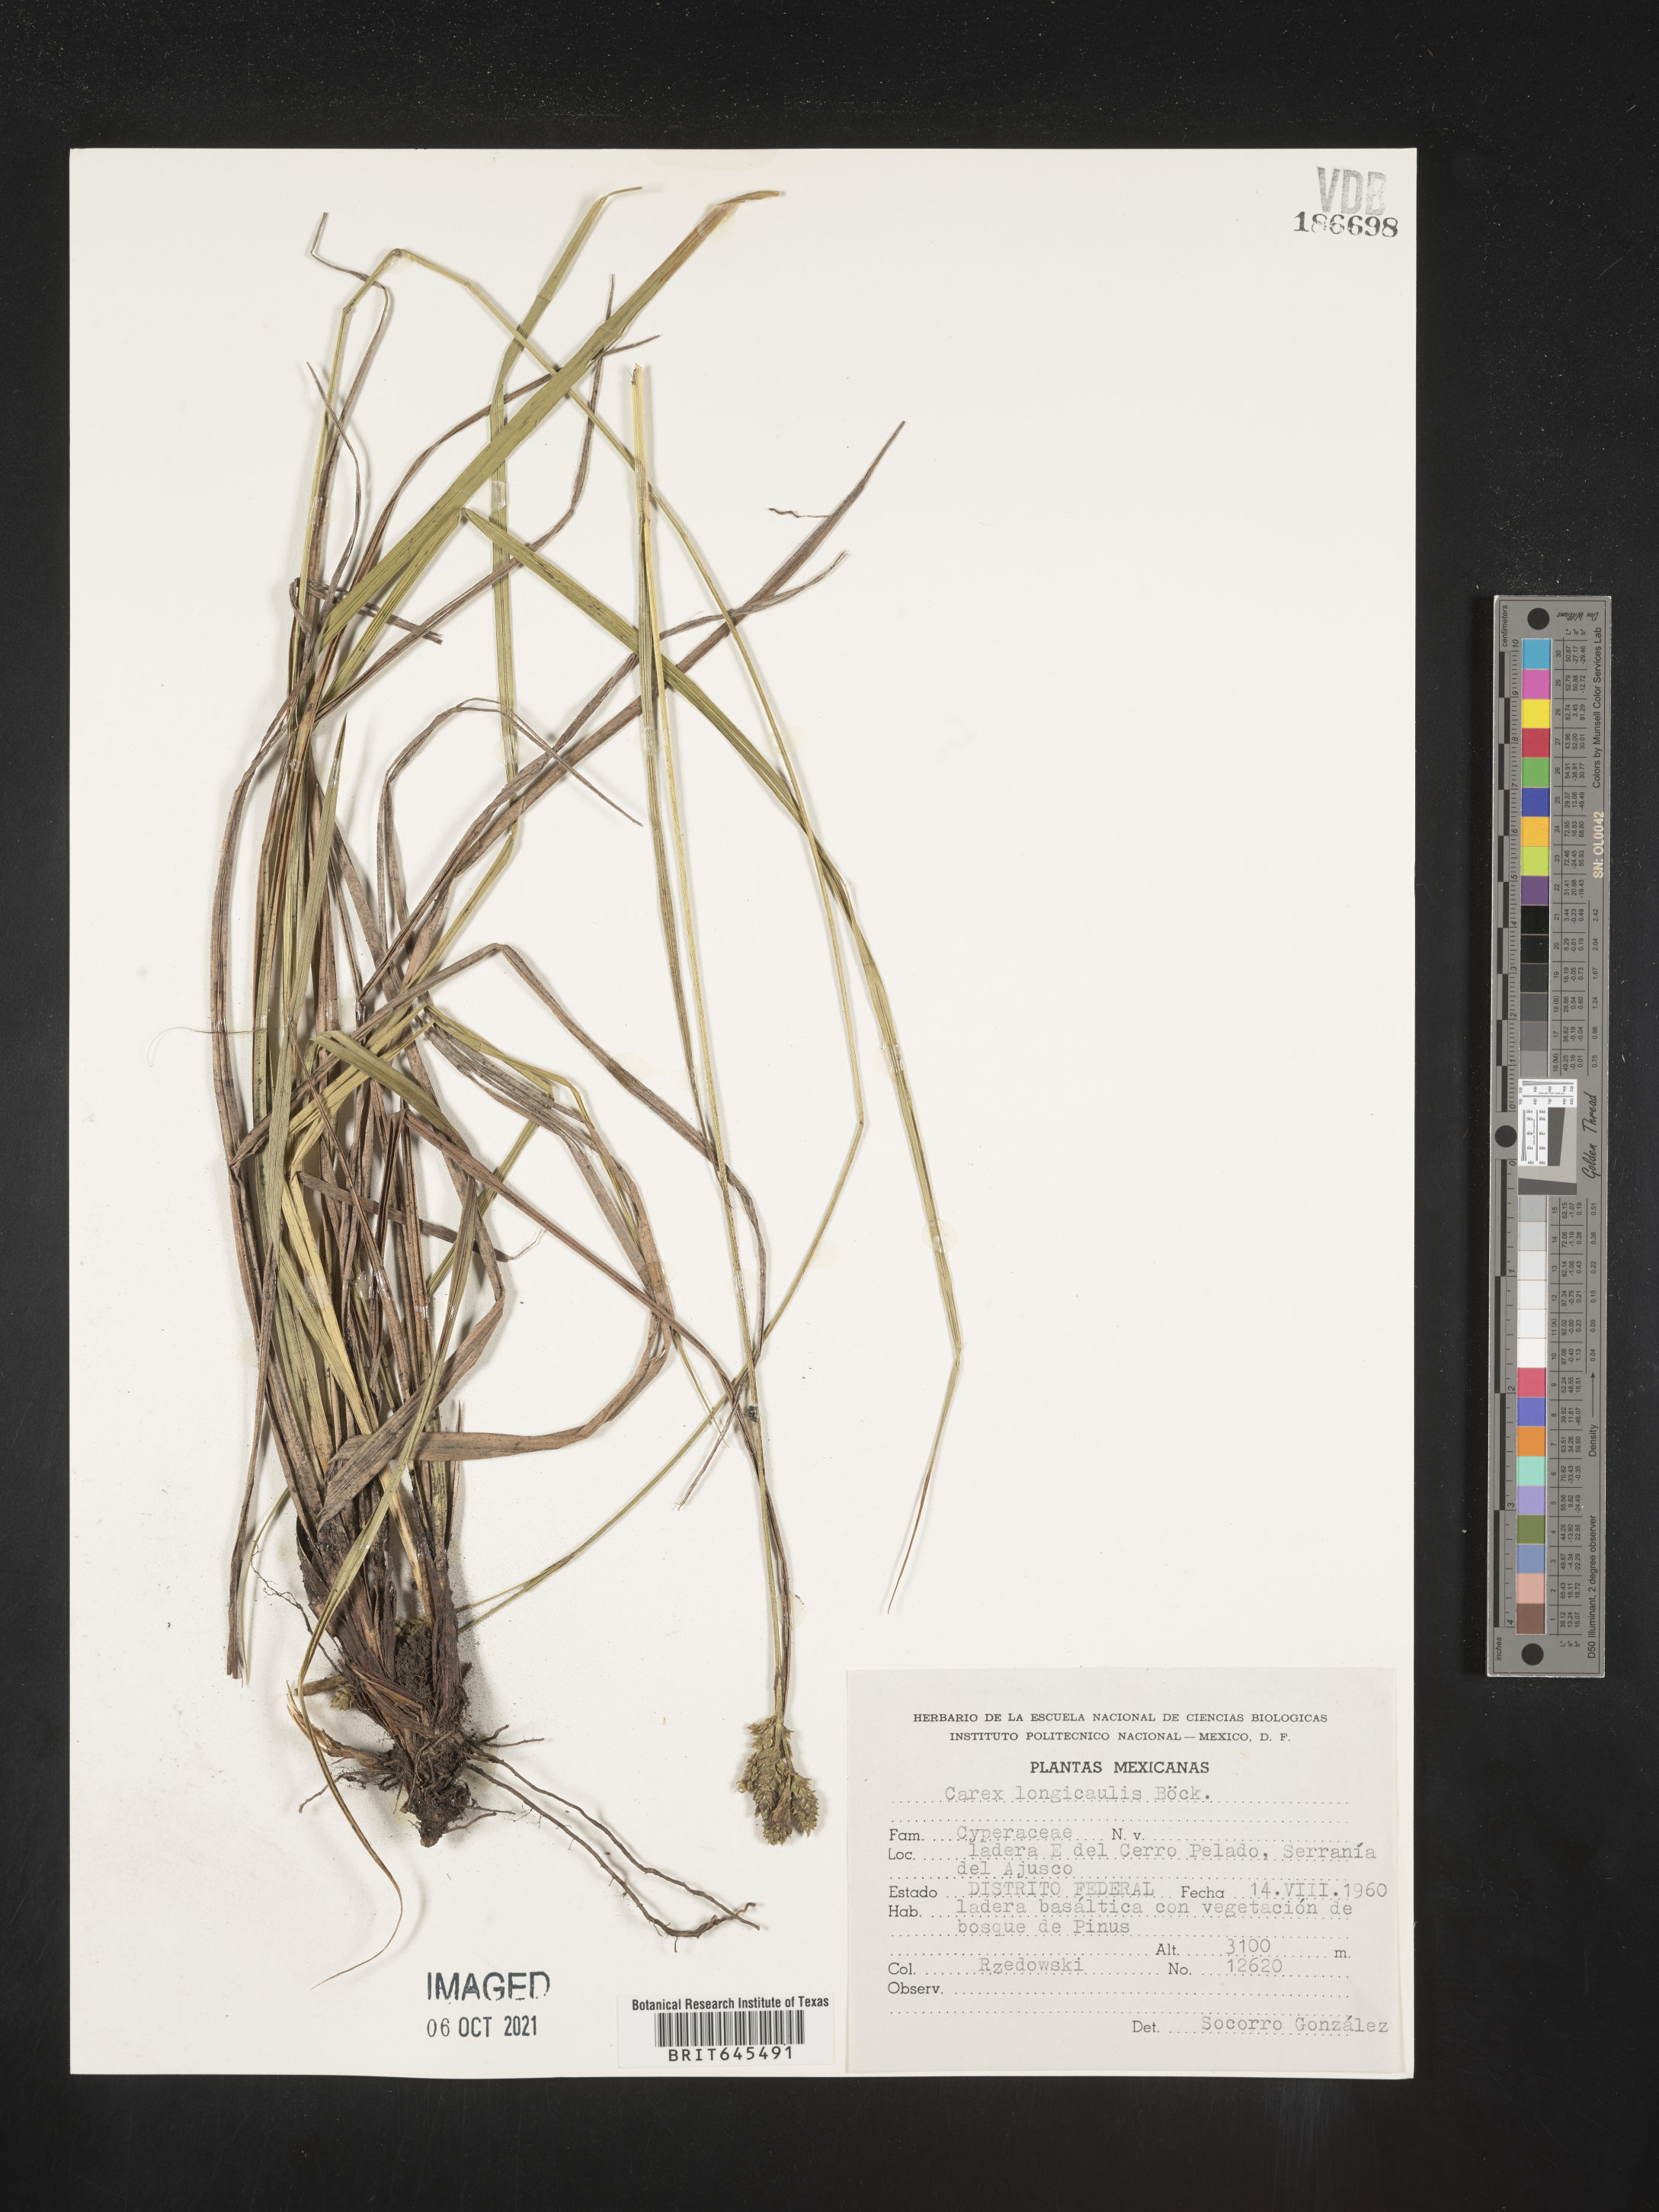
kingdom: Plantae
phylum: Tracheophyta
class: Liliopsida
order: Poales
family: Cyperaceae
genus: Carex
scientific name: Carex
